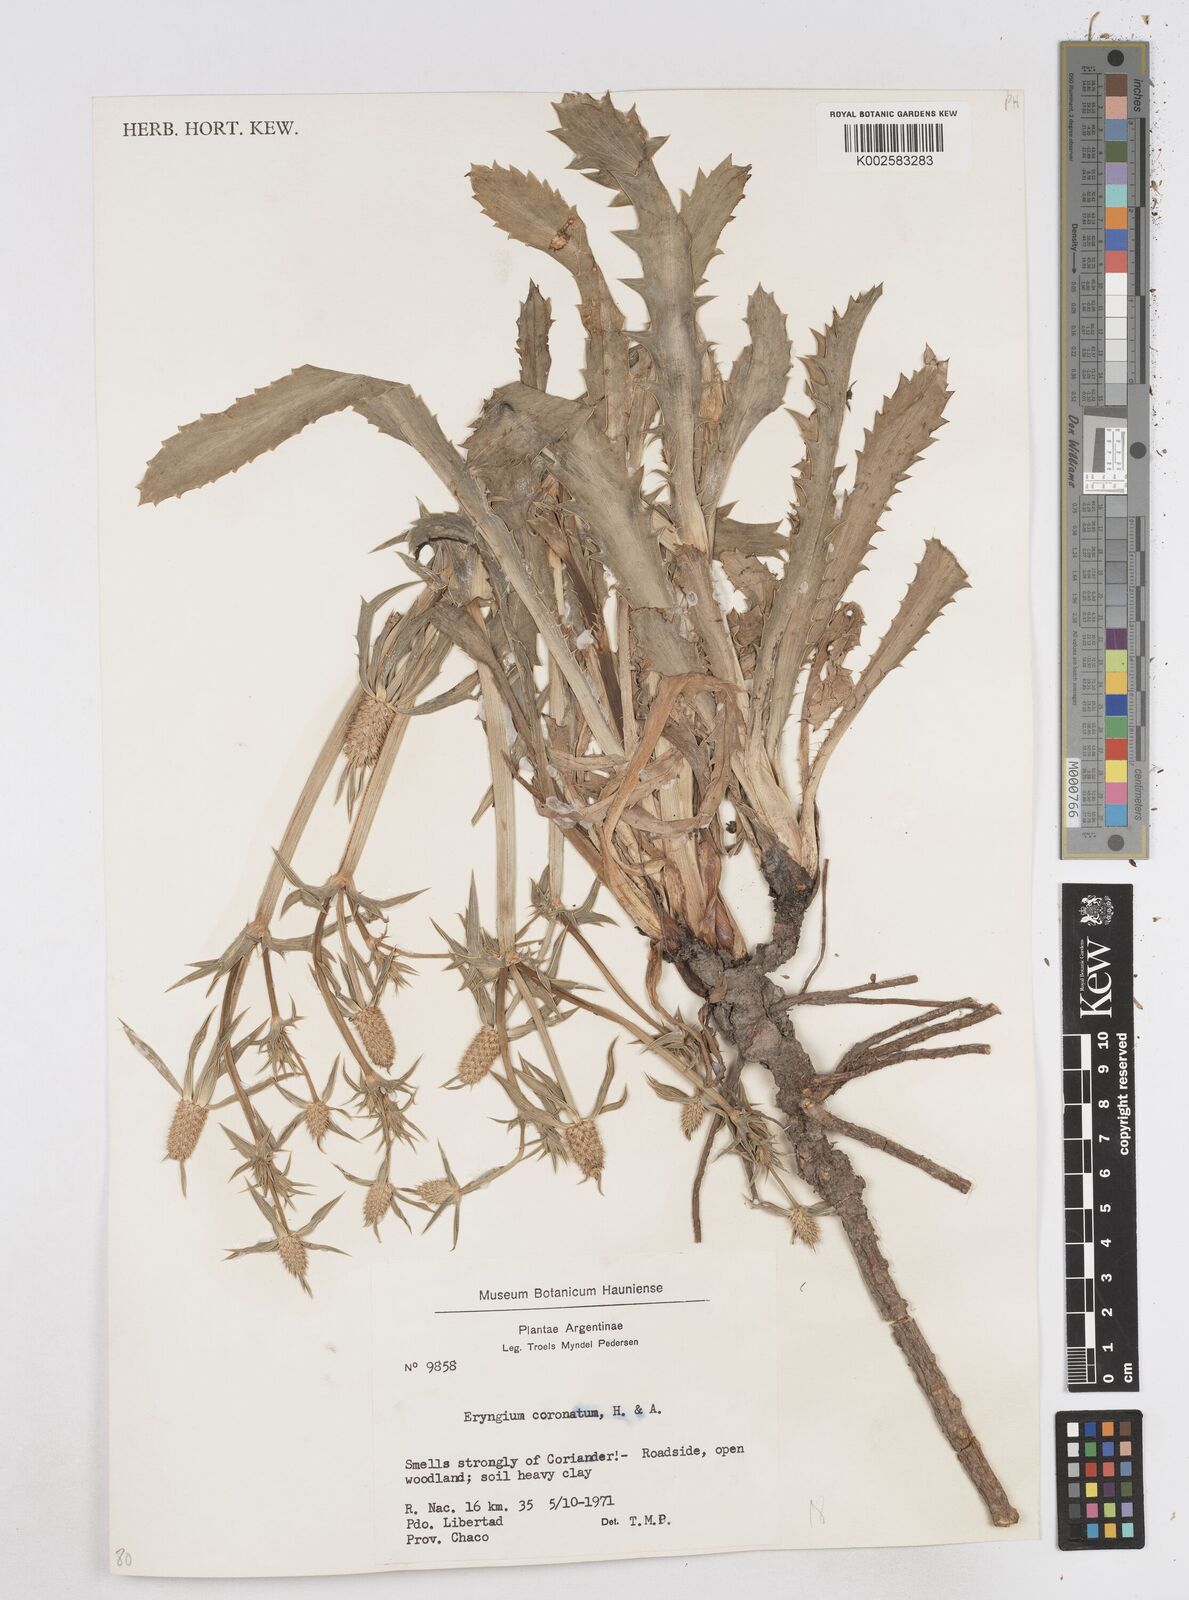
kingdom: Plantae
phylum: Tracheophyta
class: Magnoliopsida
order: Apiales
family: Apiaceae
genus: Eryngium
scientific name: Eryngium coronatum
